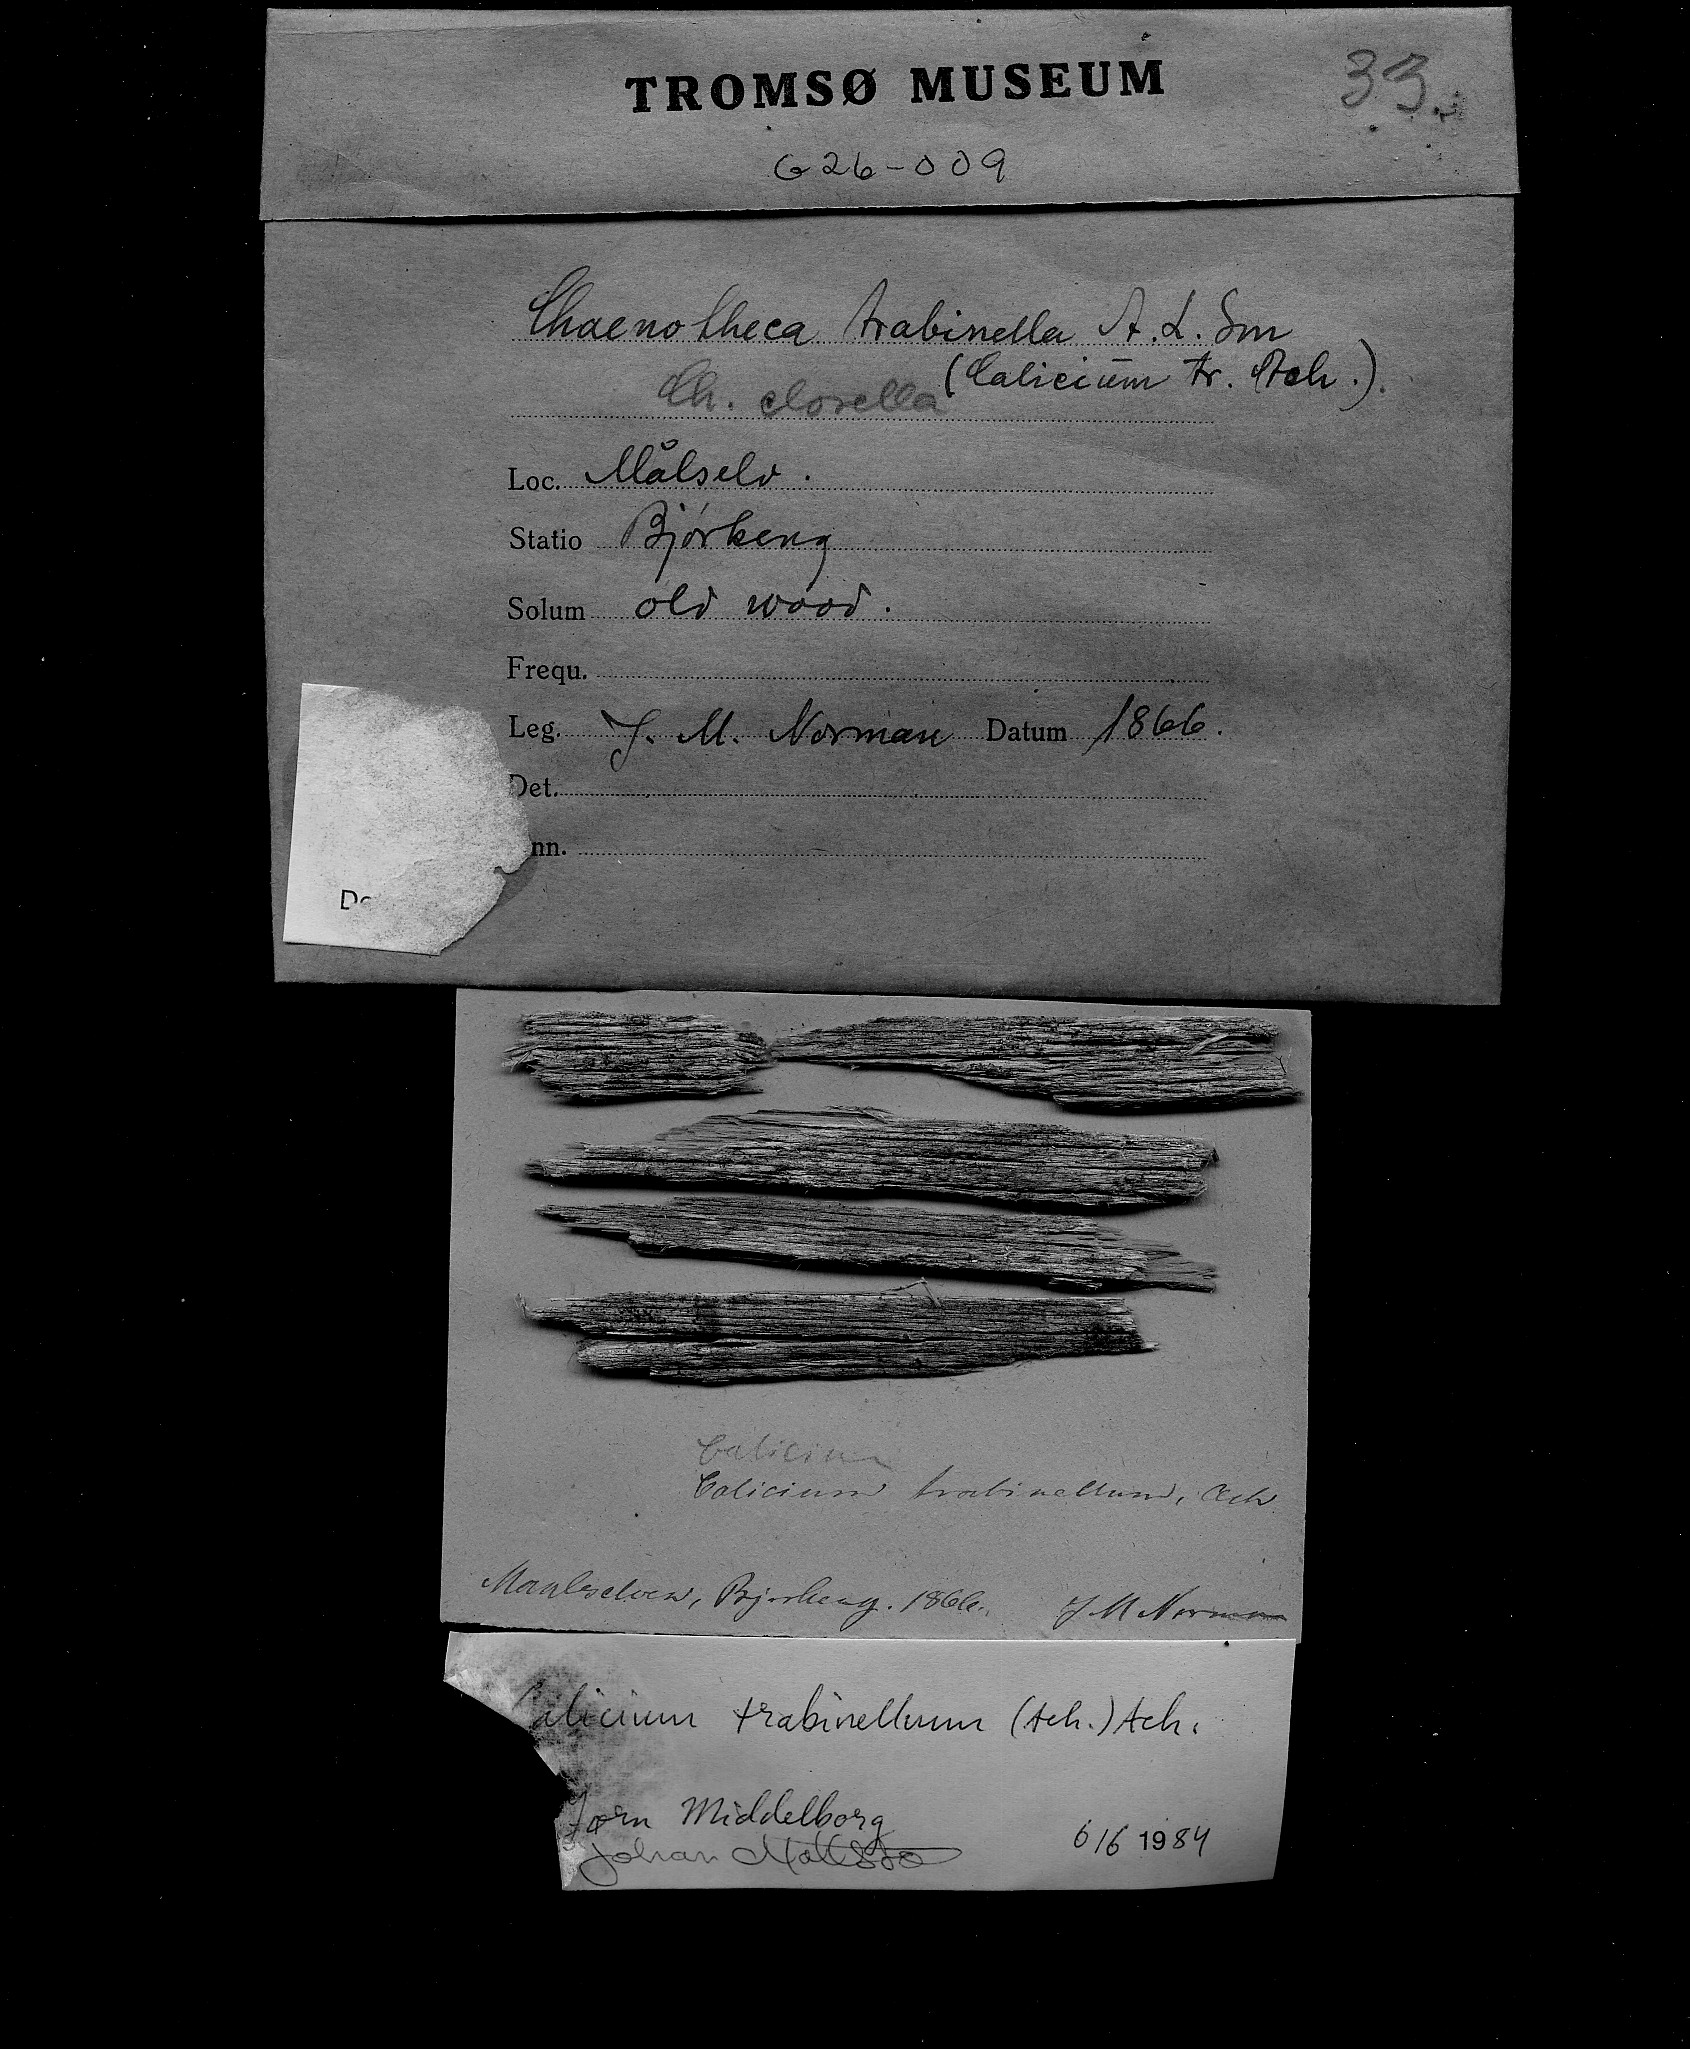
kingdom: Fungi
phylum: Ascomycota
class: Lecanoromycetes
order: Caliciales
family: Caliciaceae
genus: Calicium
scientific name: Calicium trabinellum
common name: Yellow collar stubble lichen
